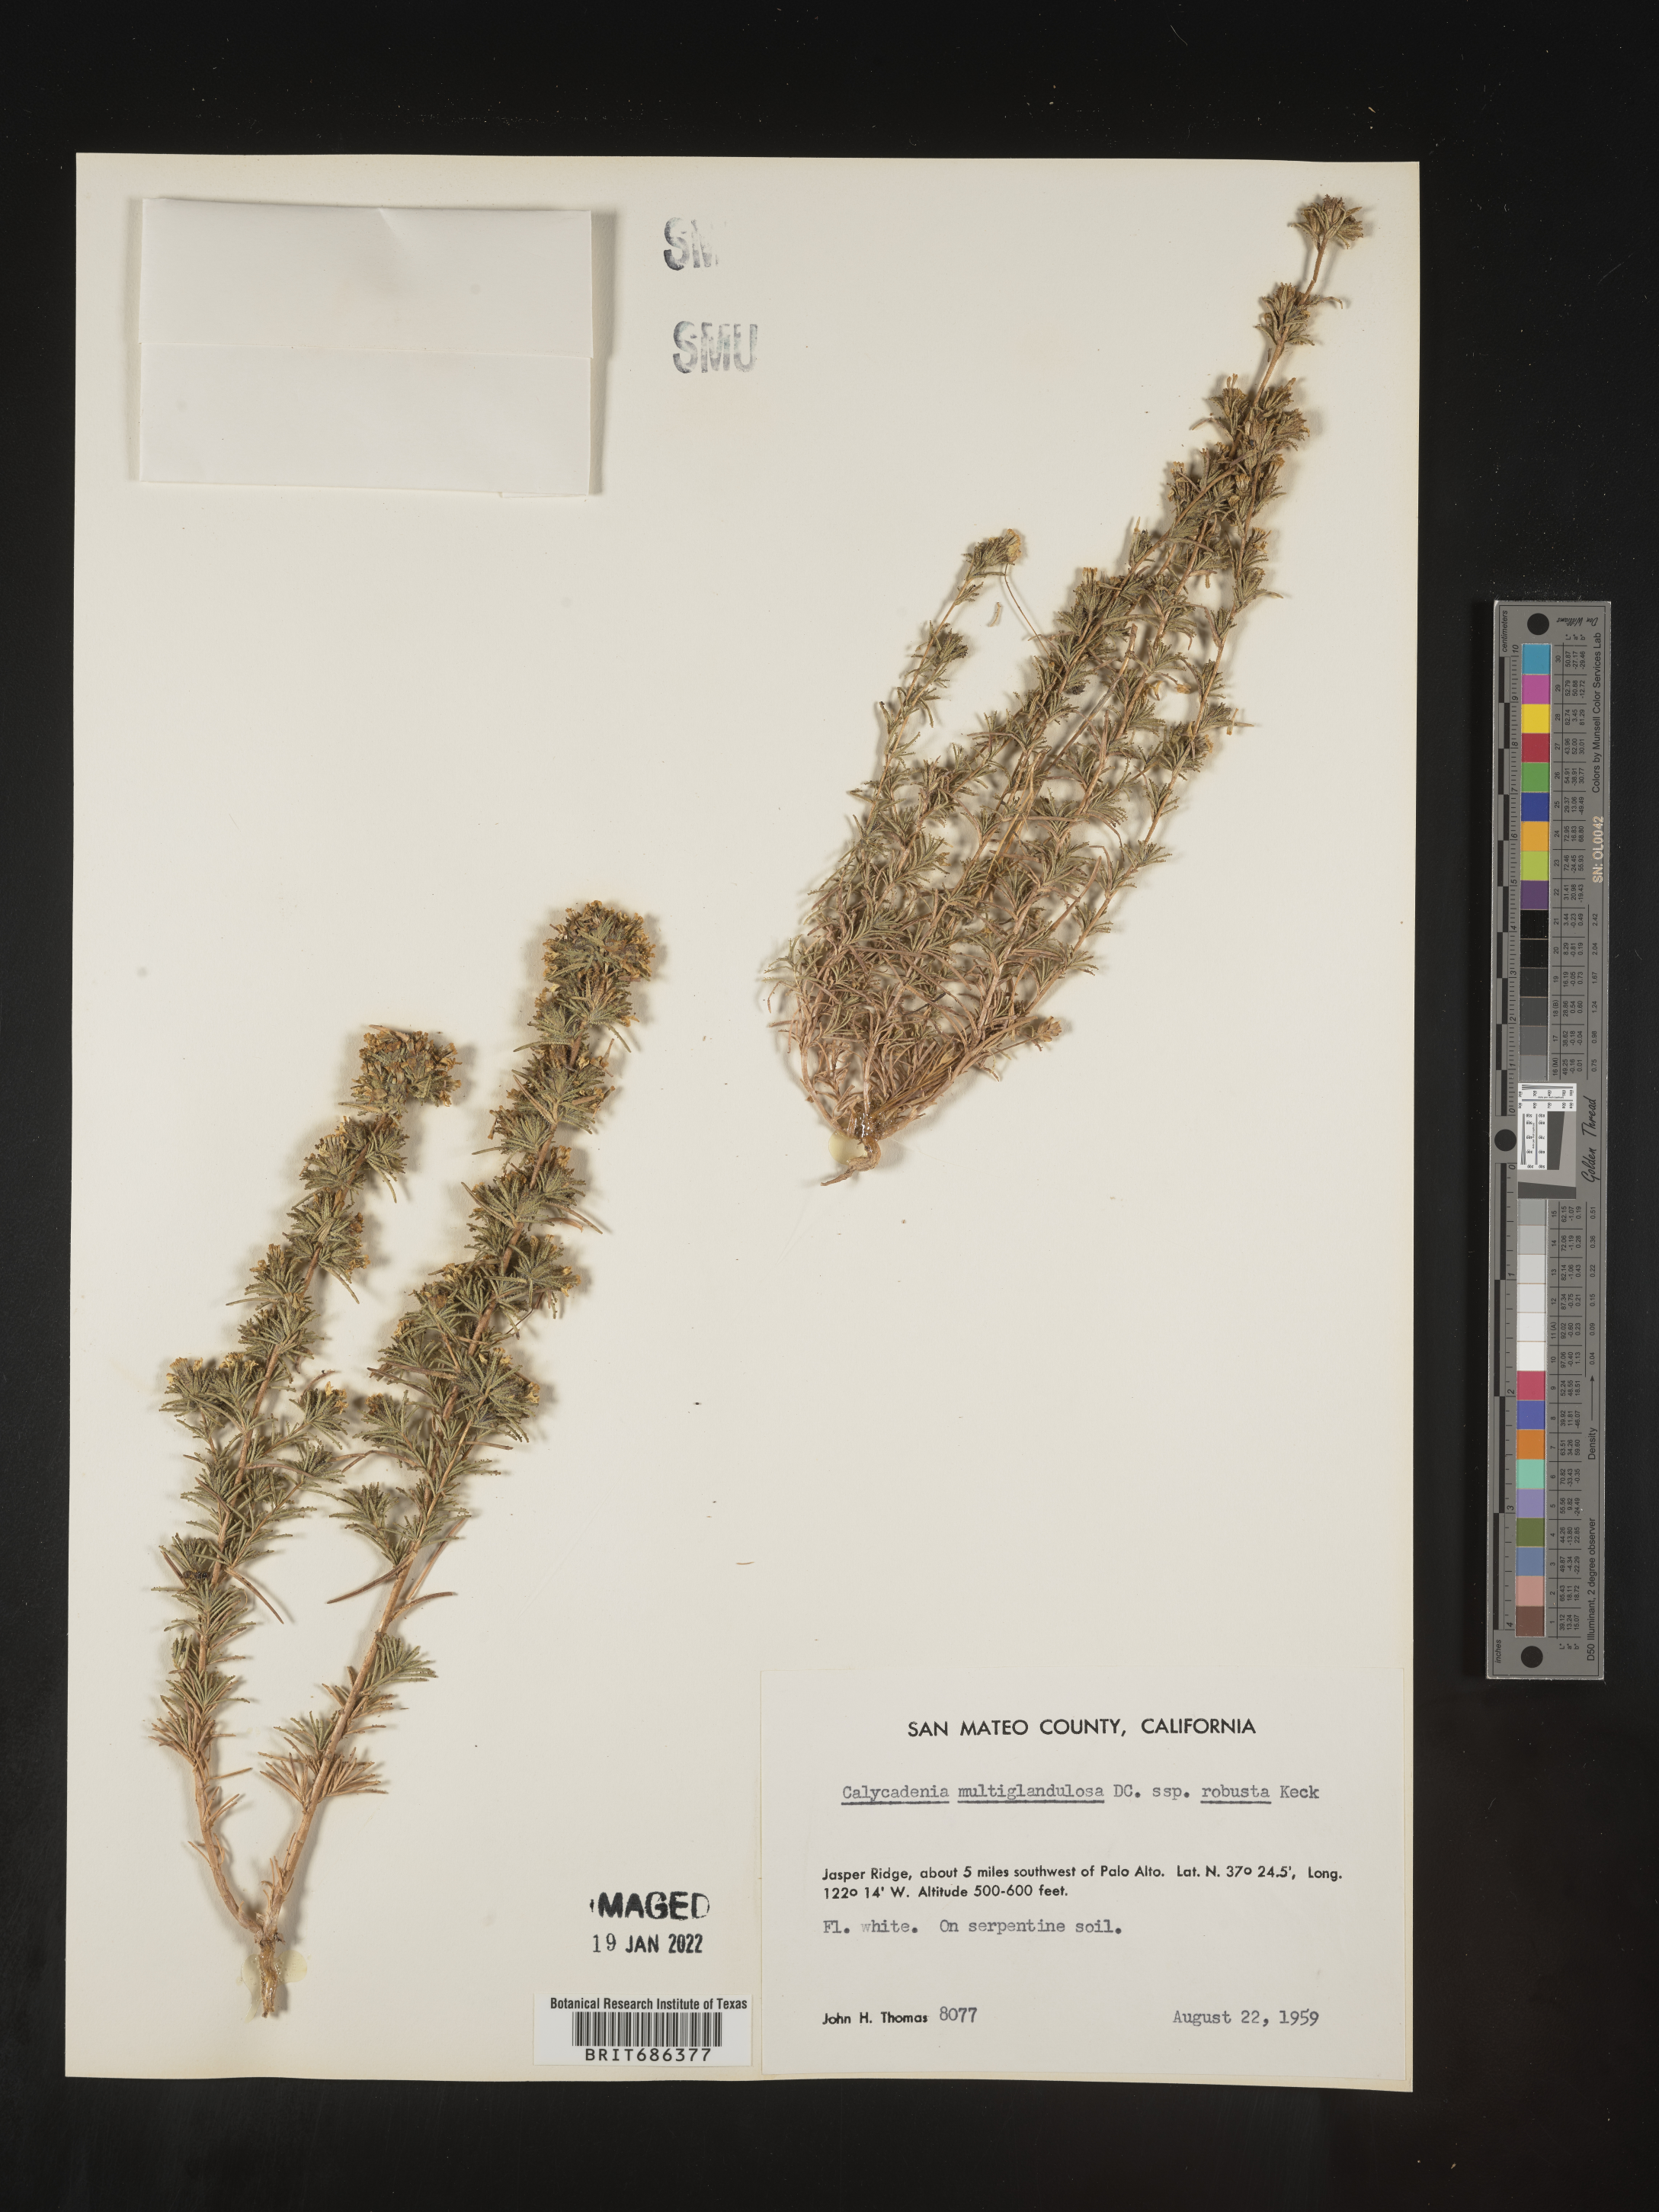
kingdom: Plantae
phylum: Tracheophyta
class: Magnoliopsida
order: Asterales
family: Asteraceae
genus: Calycadenia
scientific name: Calycadenia
